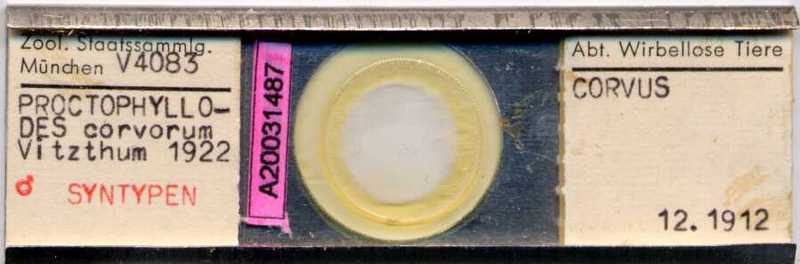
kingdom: Animalia
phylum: Arthropoda
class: Arachnida
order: Sarcoptiformes
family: Proctophyllodidae
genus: Proctophyllodes
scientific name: Proctophyllodes corvorum
